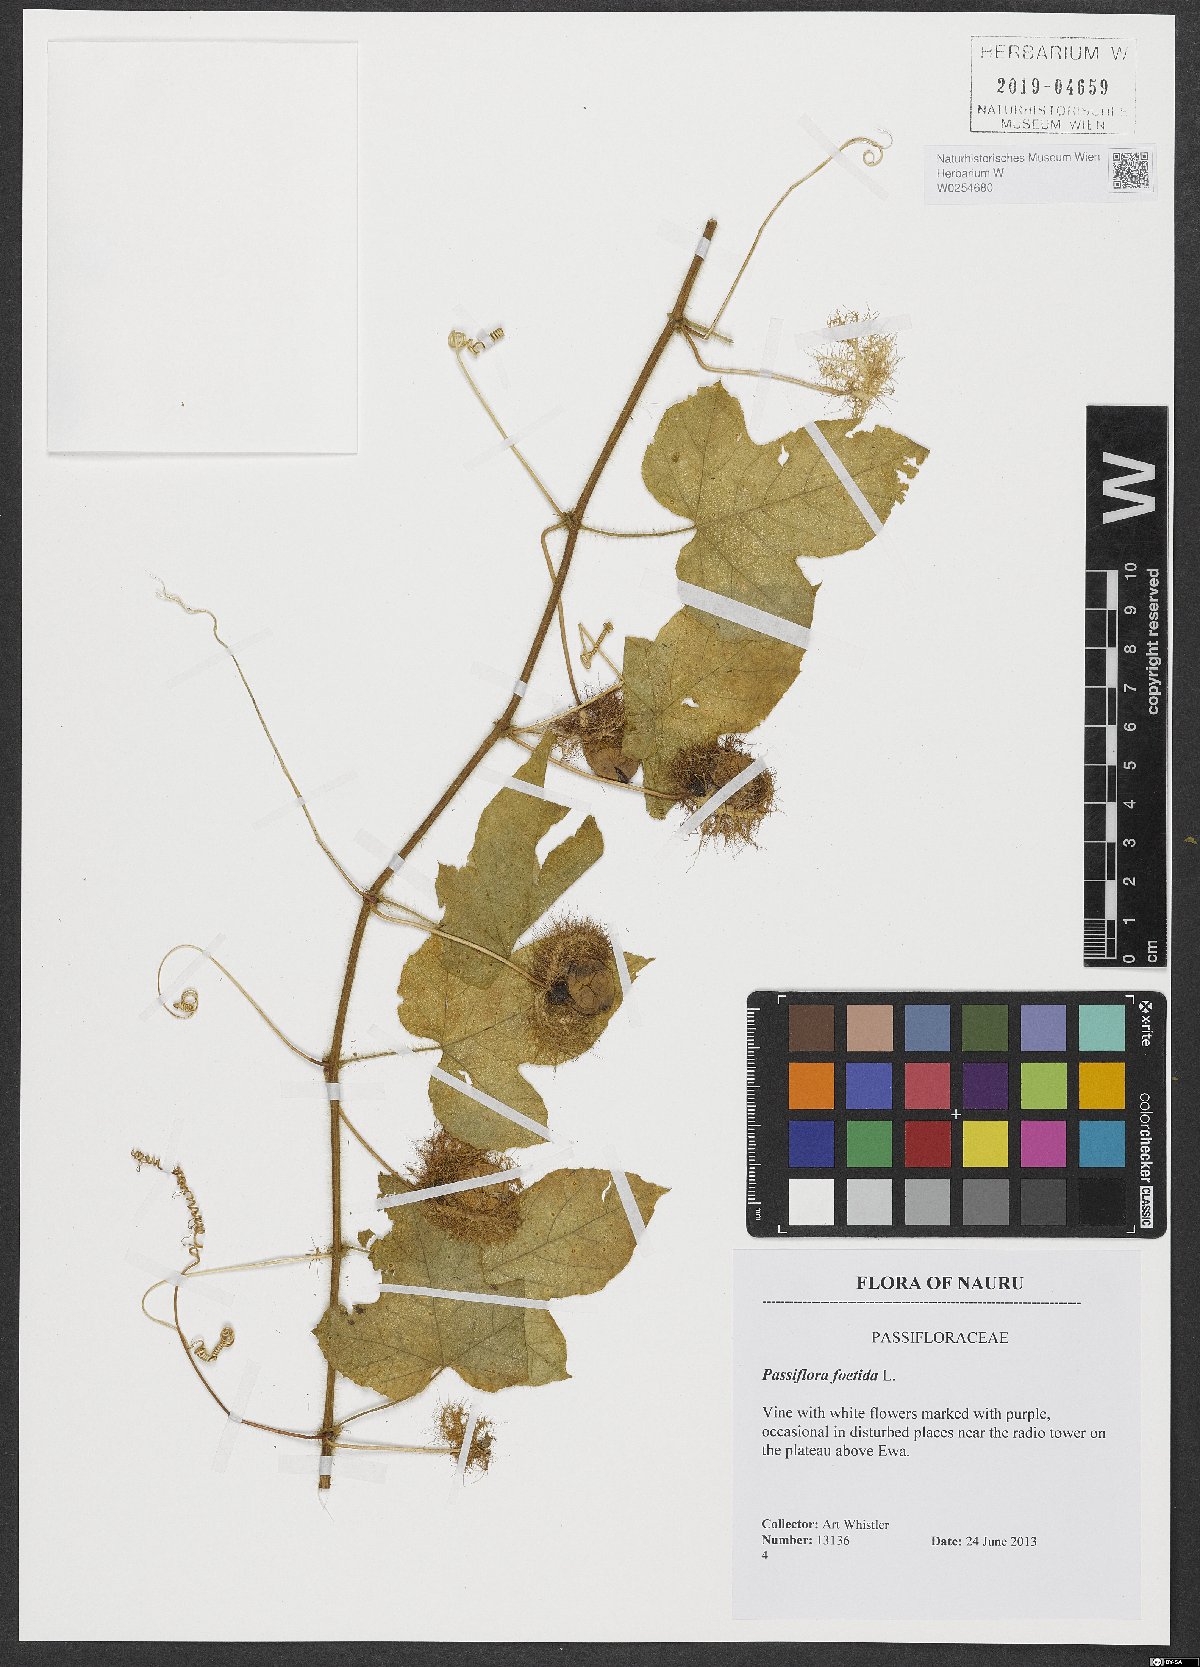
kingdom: Plantae
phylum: Tracheophyta
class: Magnoliopsida
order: Malpighiales
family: Passifloraceae
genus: Passiflora
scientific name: Passiflora foetida
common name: Fetid passionflower
